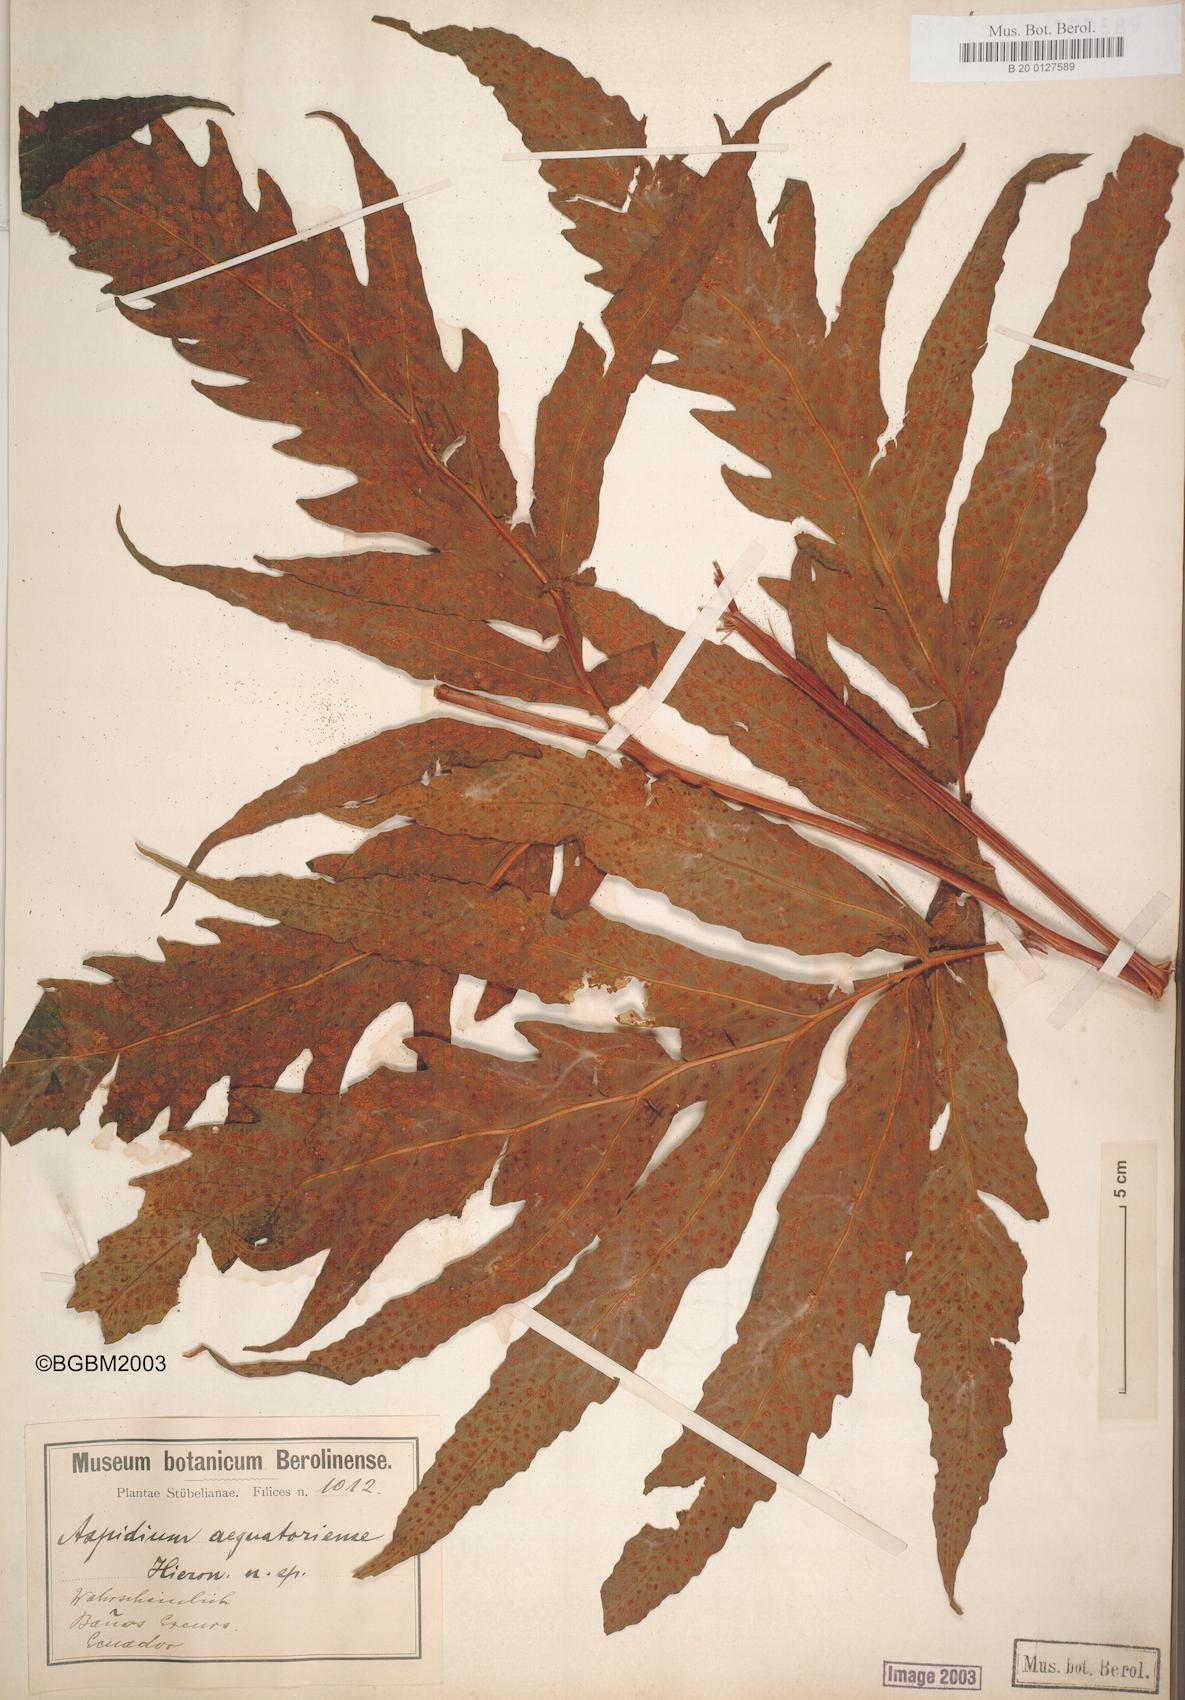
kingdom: Plantae
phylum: Tracheophyta
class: Polypodiopsida
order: Polypodiales
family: Tectariaceae
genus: Tectaria
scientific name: Tectaria aequatoriensis
